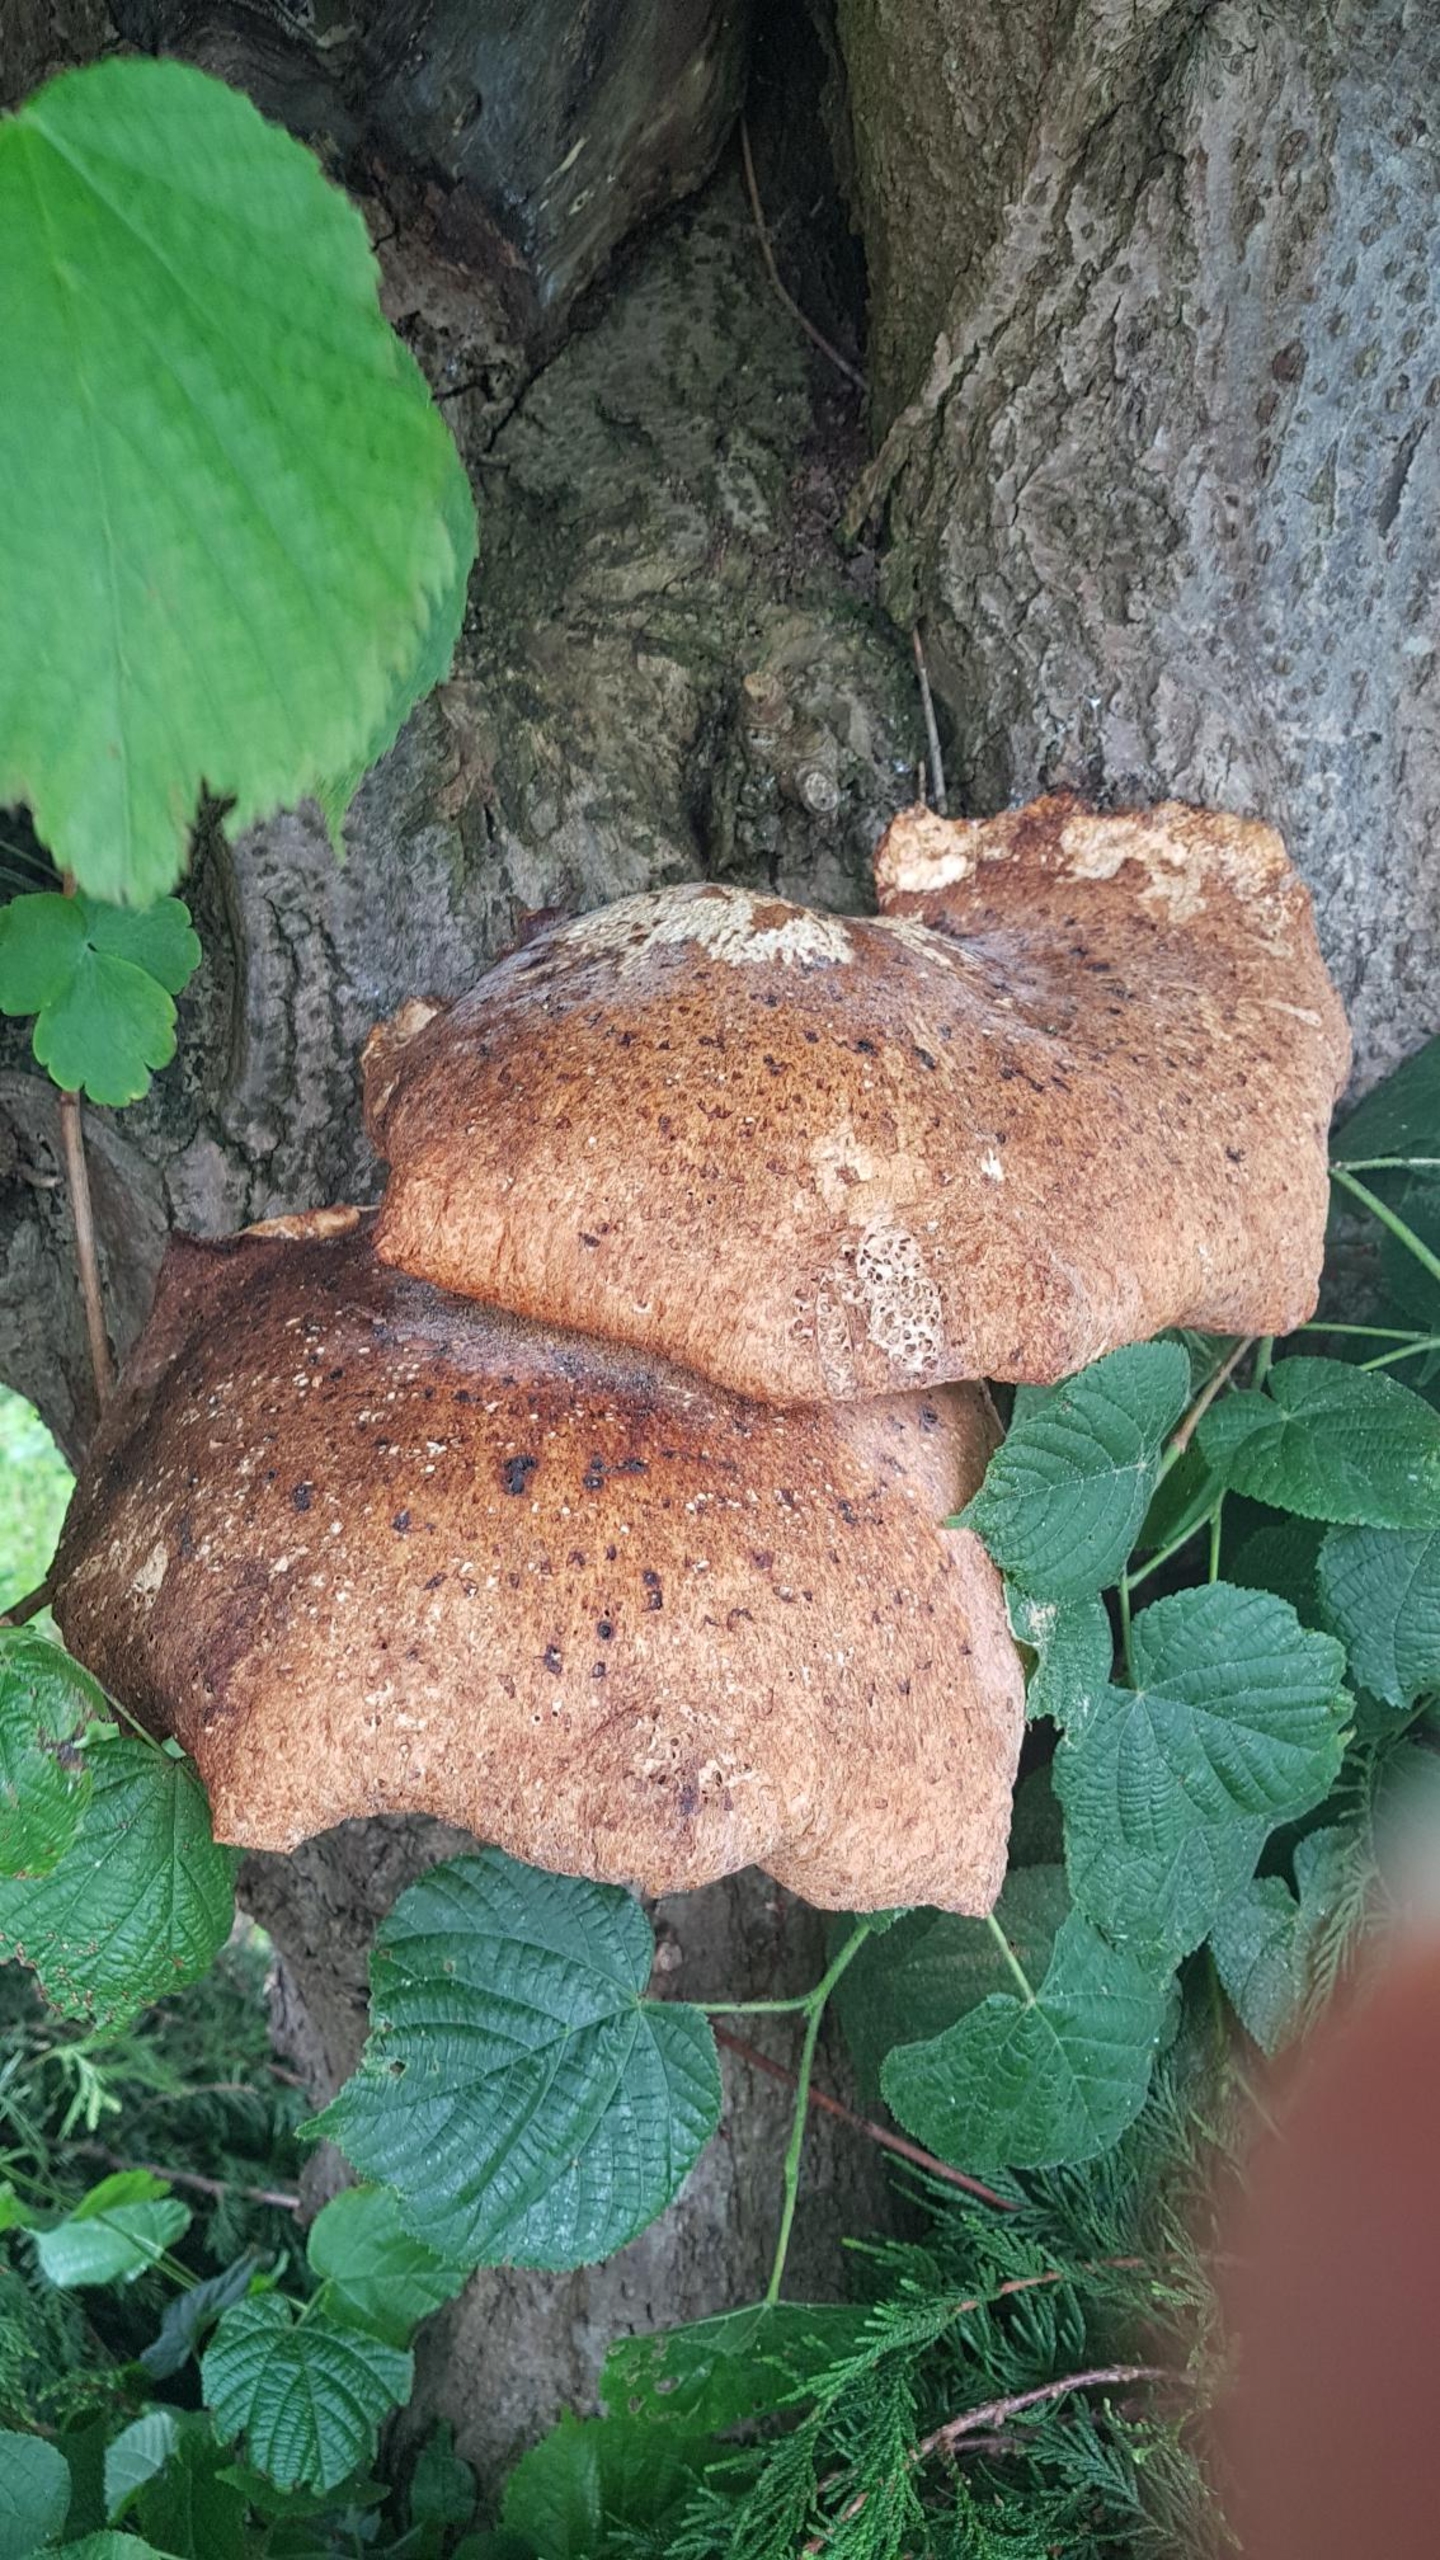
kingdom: Fungi
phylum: Basidiomycota
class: Agaricomycetes
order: Polyporales
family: Polyporaceae
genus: Cerioporus
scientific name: Cerioporus squamosus
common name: Skællet stilkporesvamp
